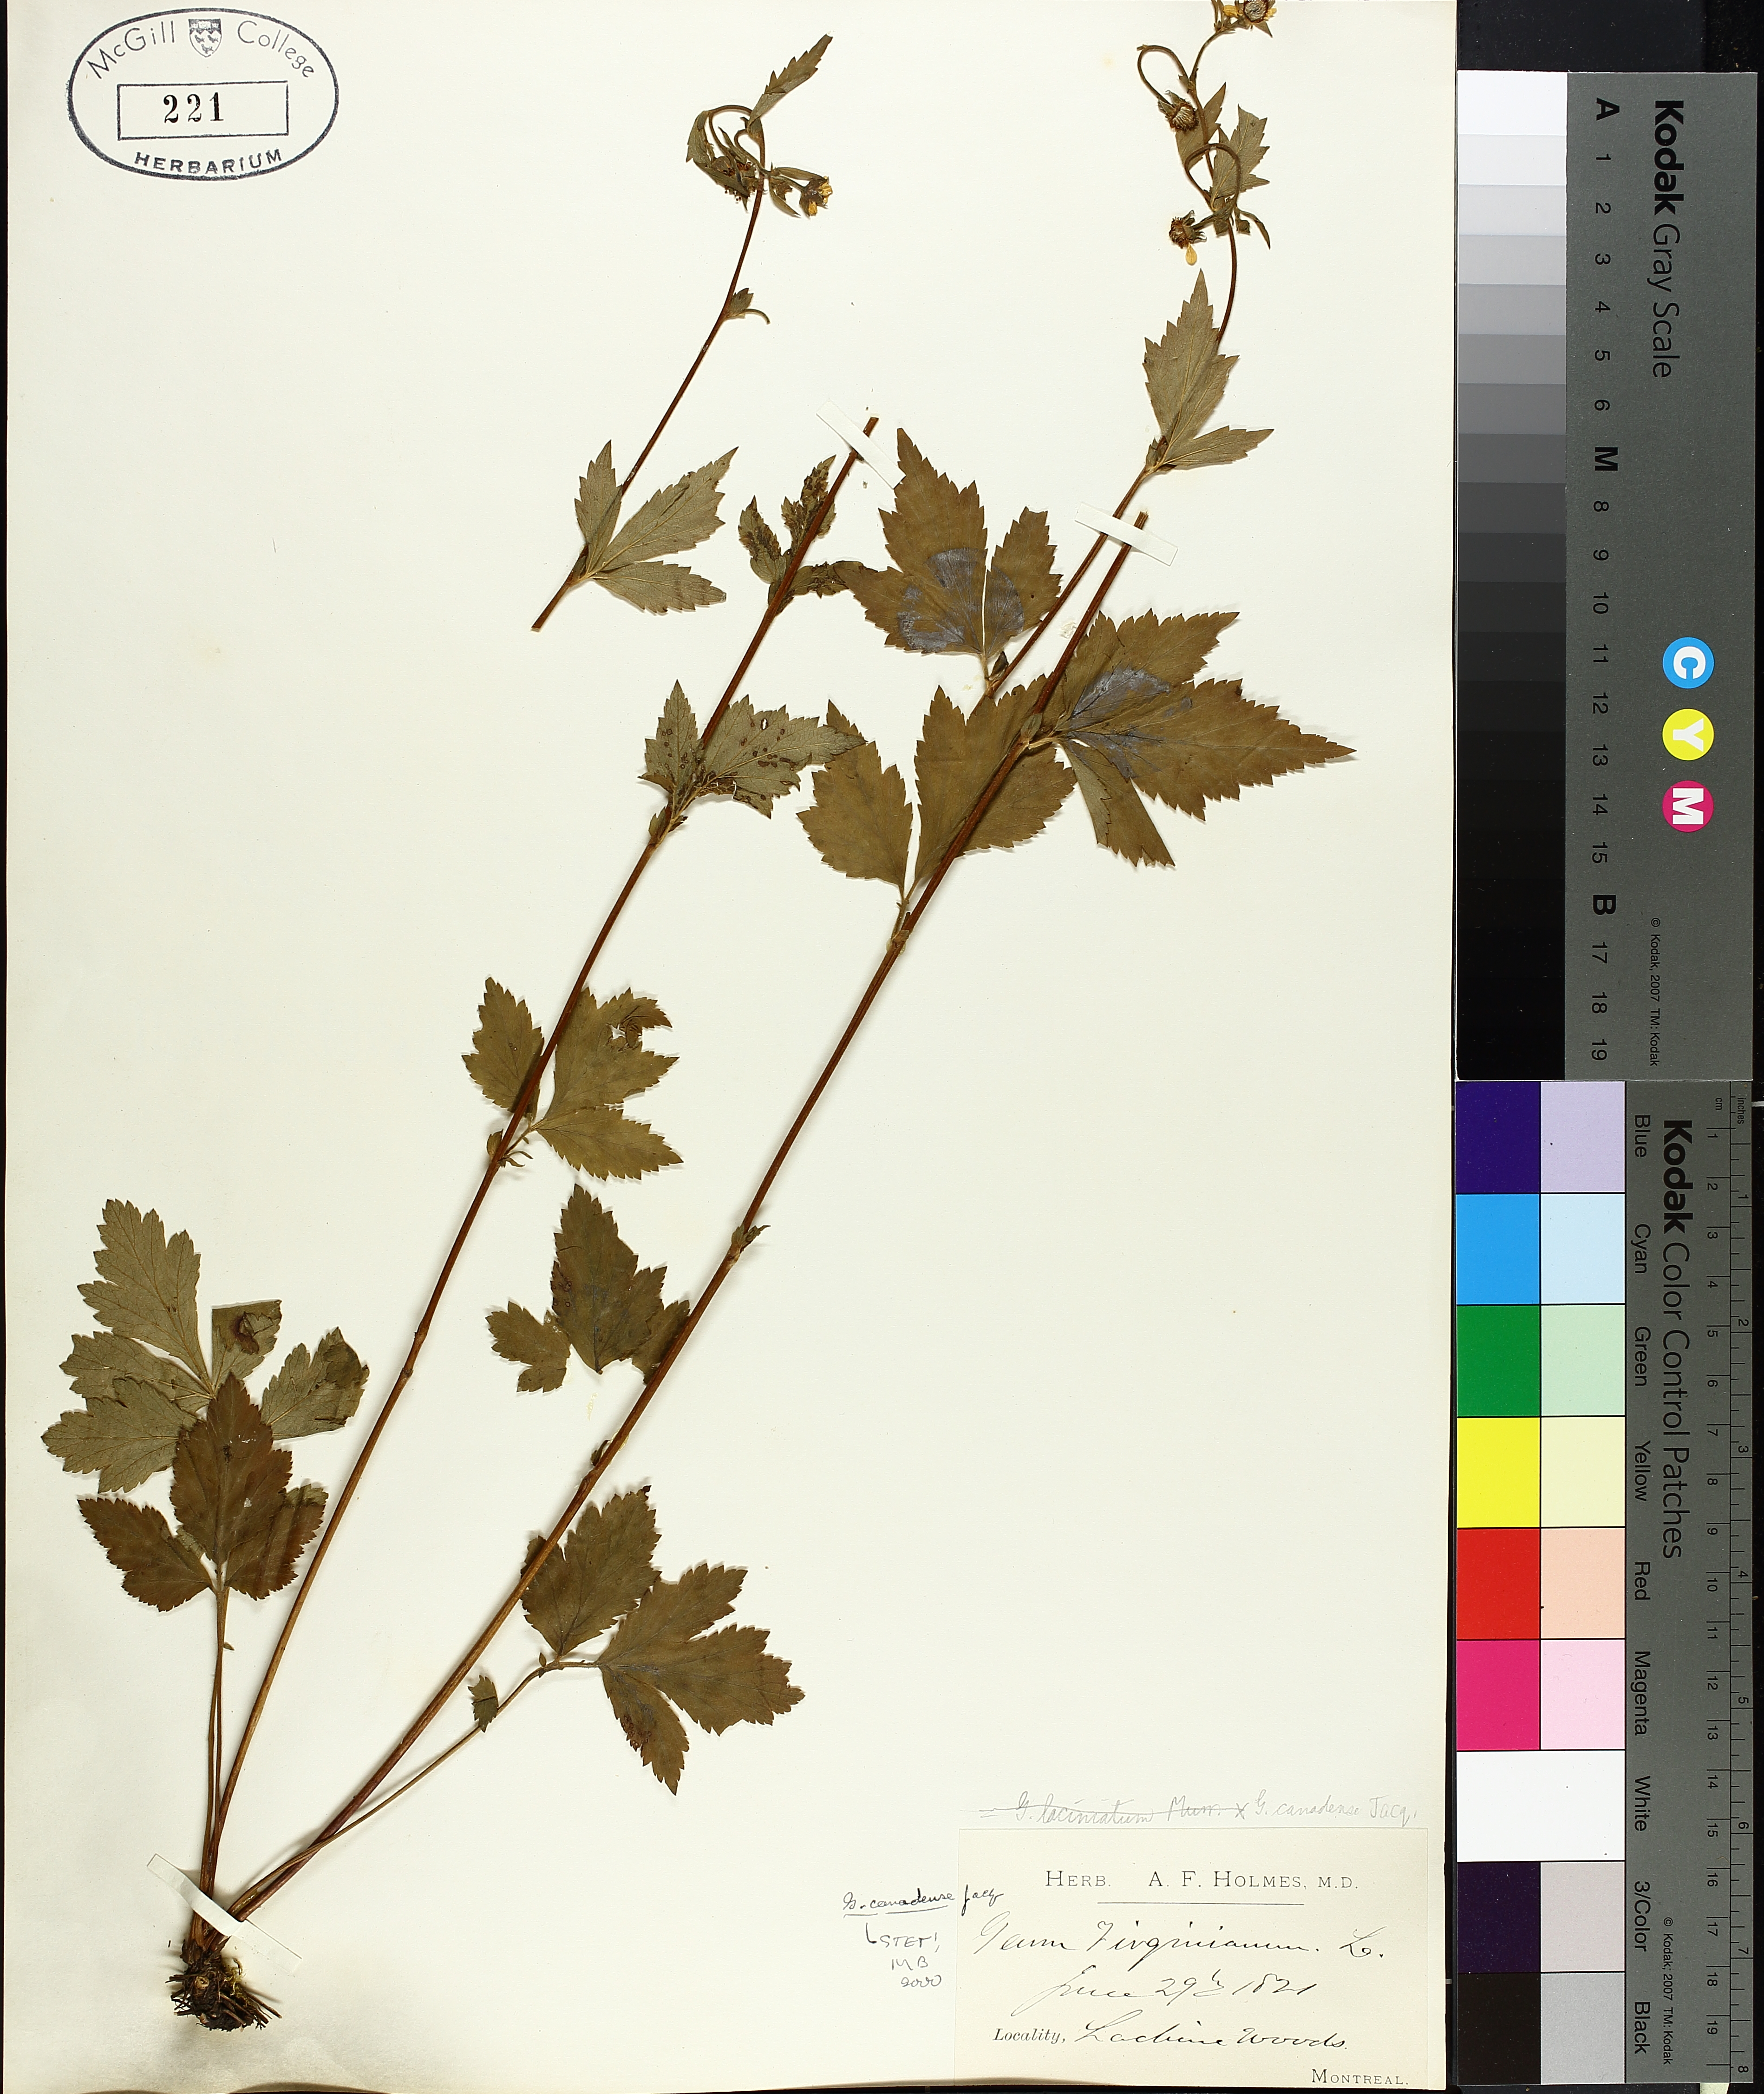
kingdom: Plantae
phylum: Tracheophyta
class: Magnoliopsida
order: Rosales
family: Rosaceae
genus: Geum
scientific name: Geum canadense
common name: White avens
